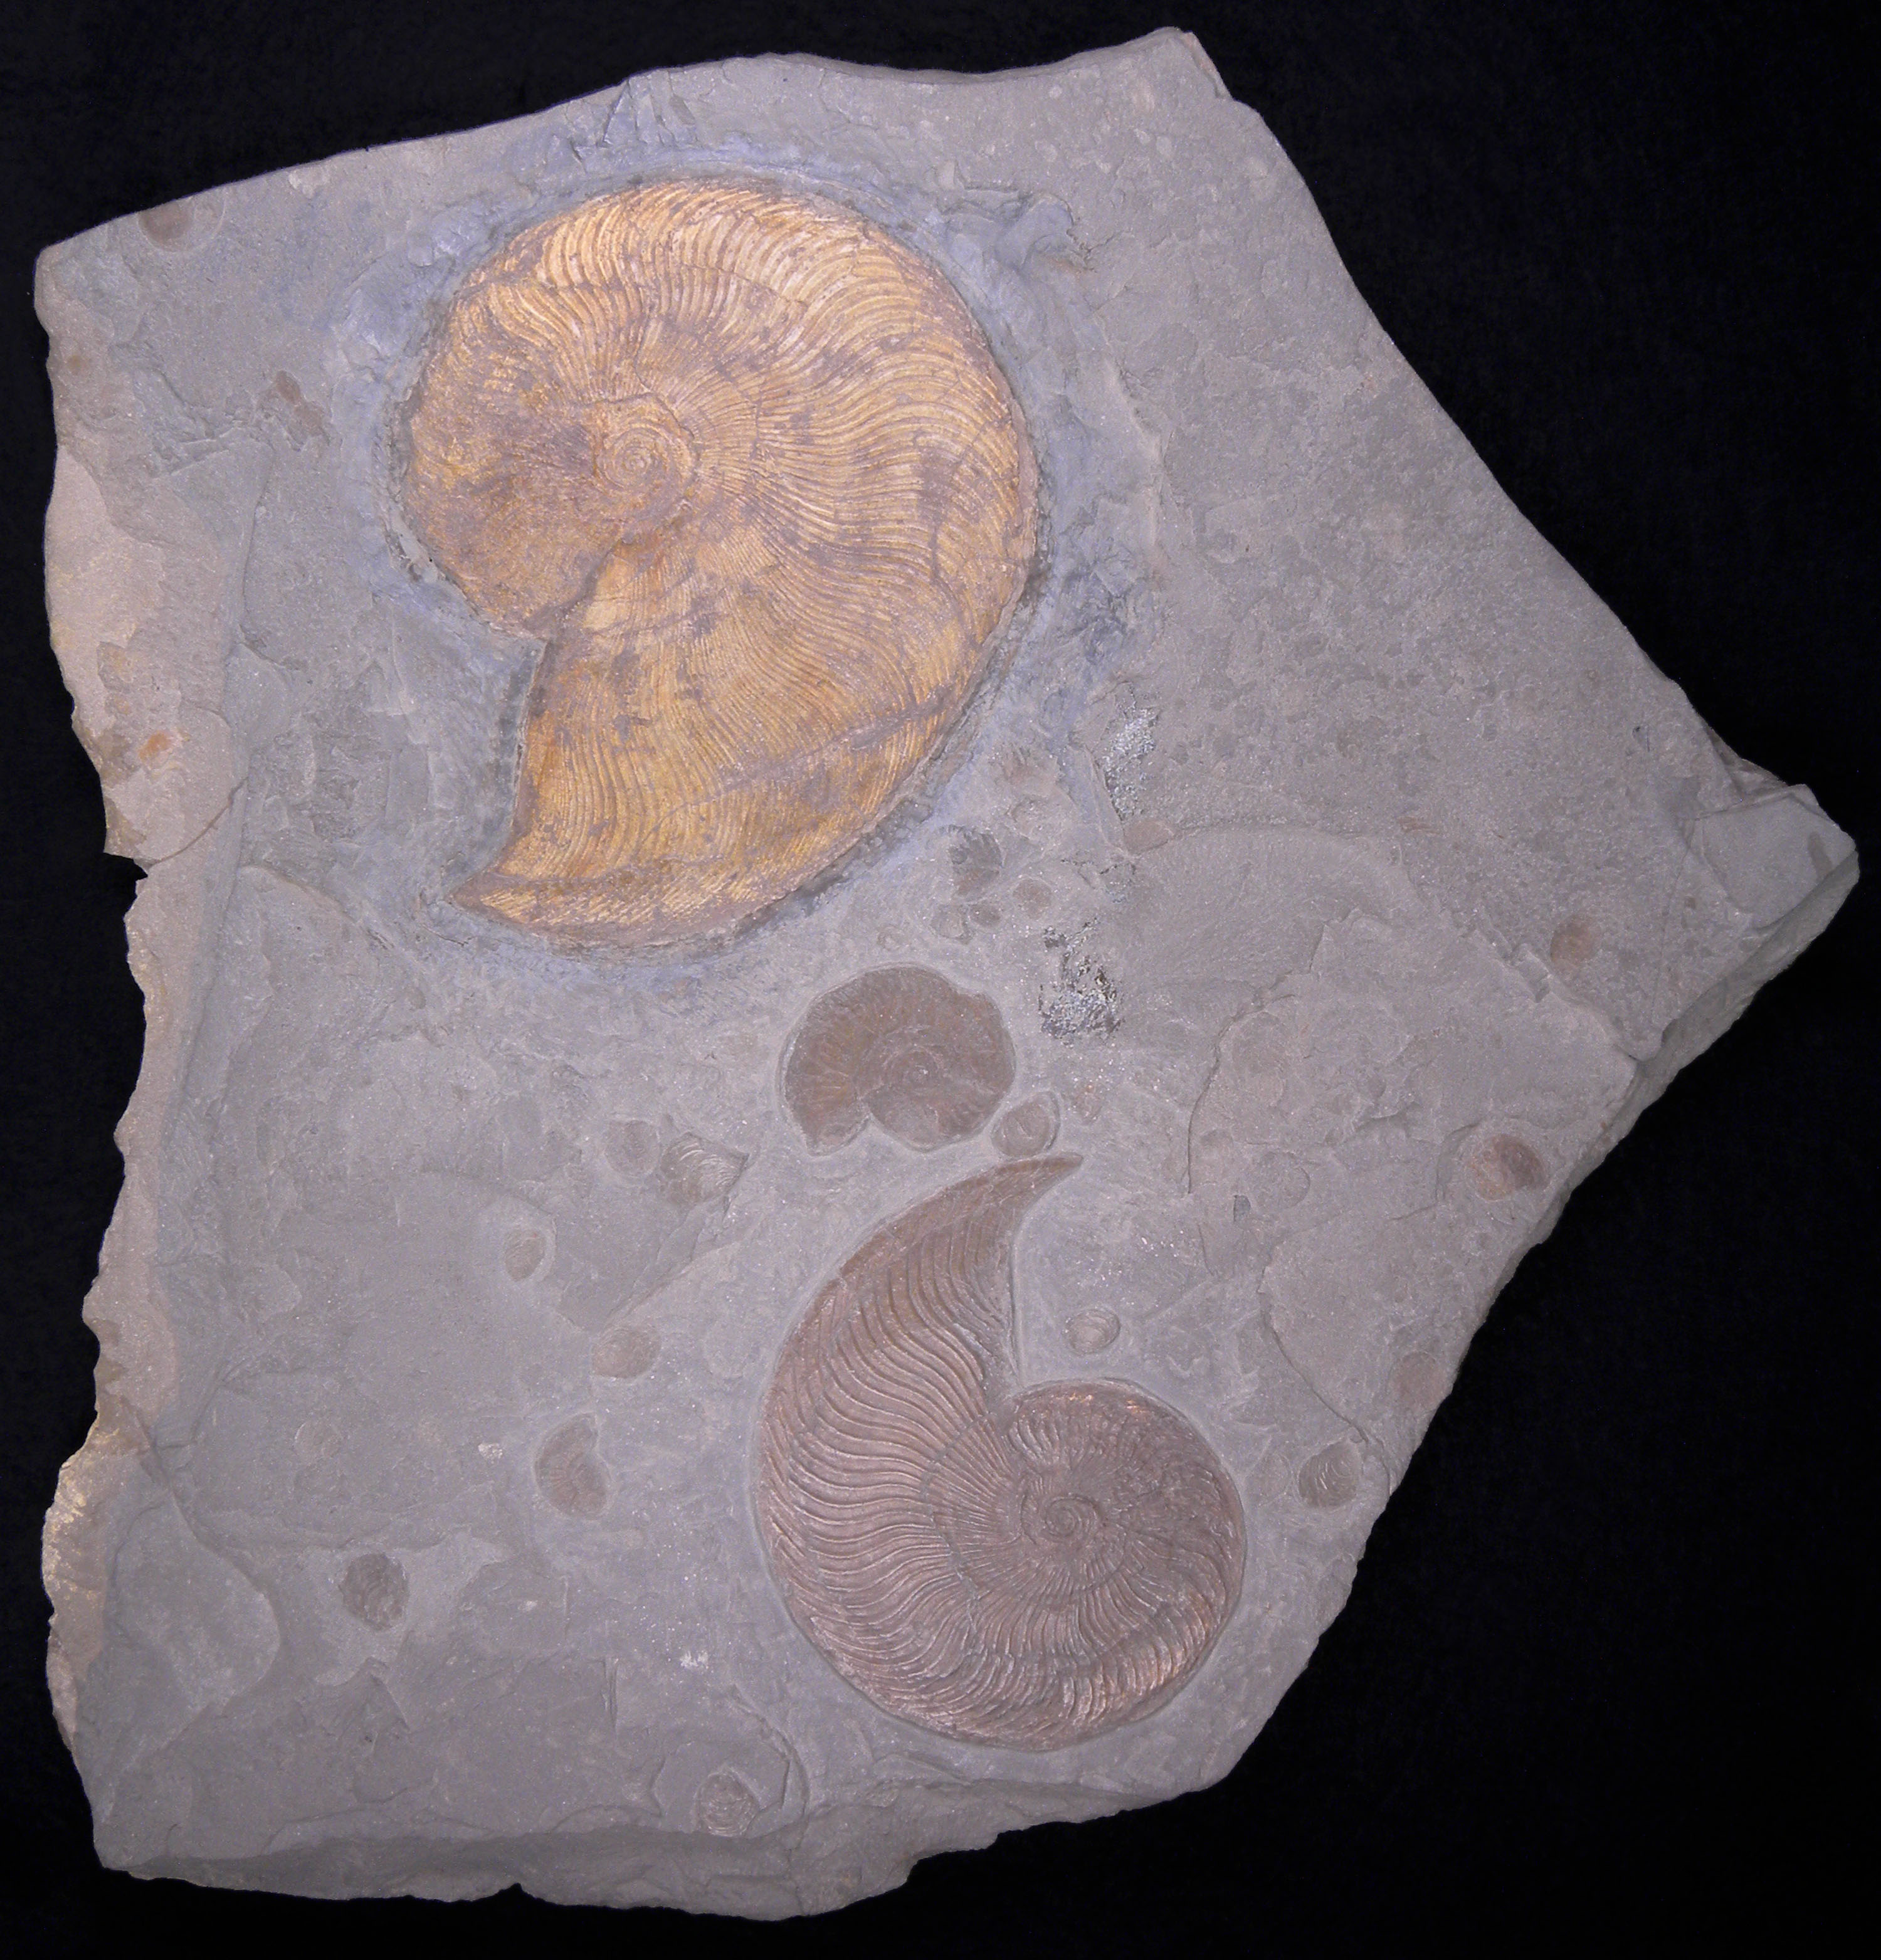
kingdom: Animalia
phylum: Mollusca
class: Cephalopoda
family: Hildoceratidae
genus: Eleganticeras
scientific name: Eleganticeras elegans
